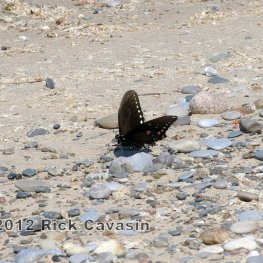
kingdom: Animalia
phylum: Arthropoda
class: Insecta
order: Lepidoptera
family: Papilionidae
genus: Pterourus
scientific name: Pterourus troilus
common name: Spicebush Swallowtail
